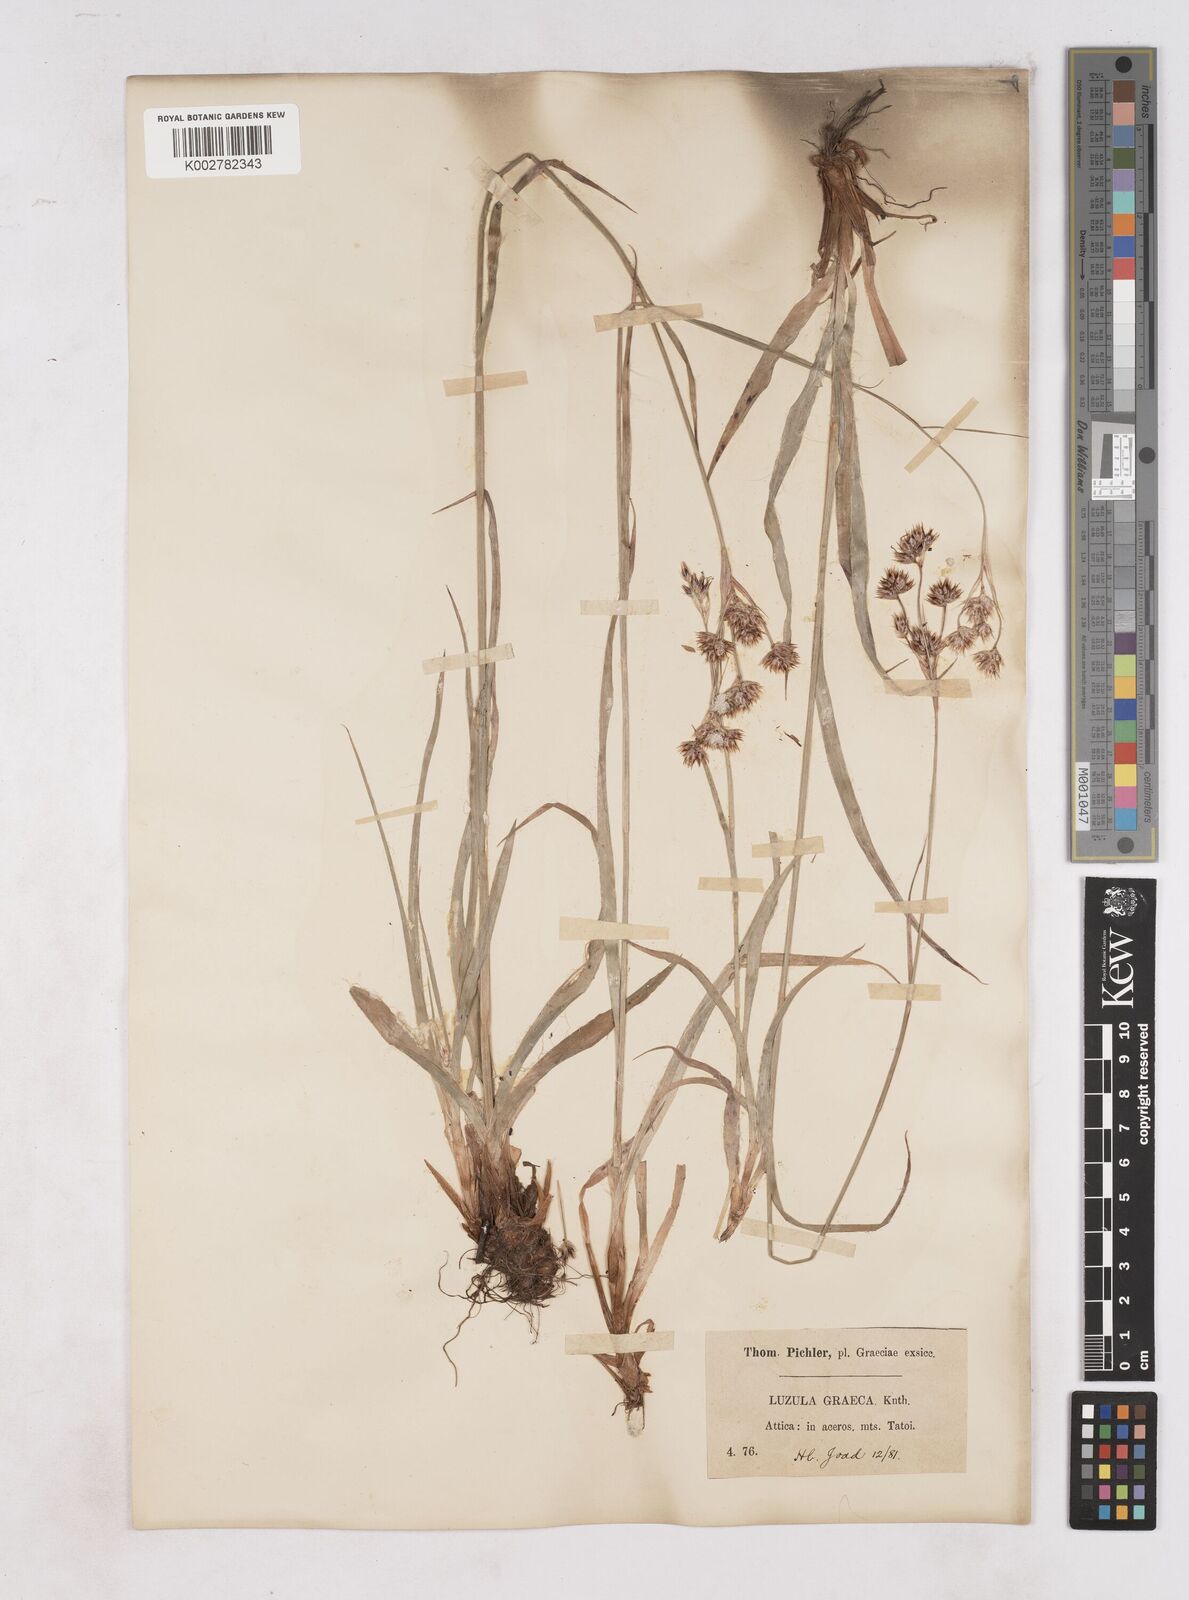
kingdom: Plantae
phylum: Tracheophyta
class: Liliopsida
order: Poales
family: Juncaceae
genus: Luzula
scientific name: Luzula nodulosa
